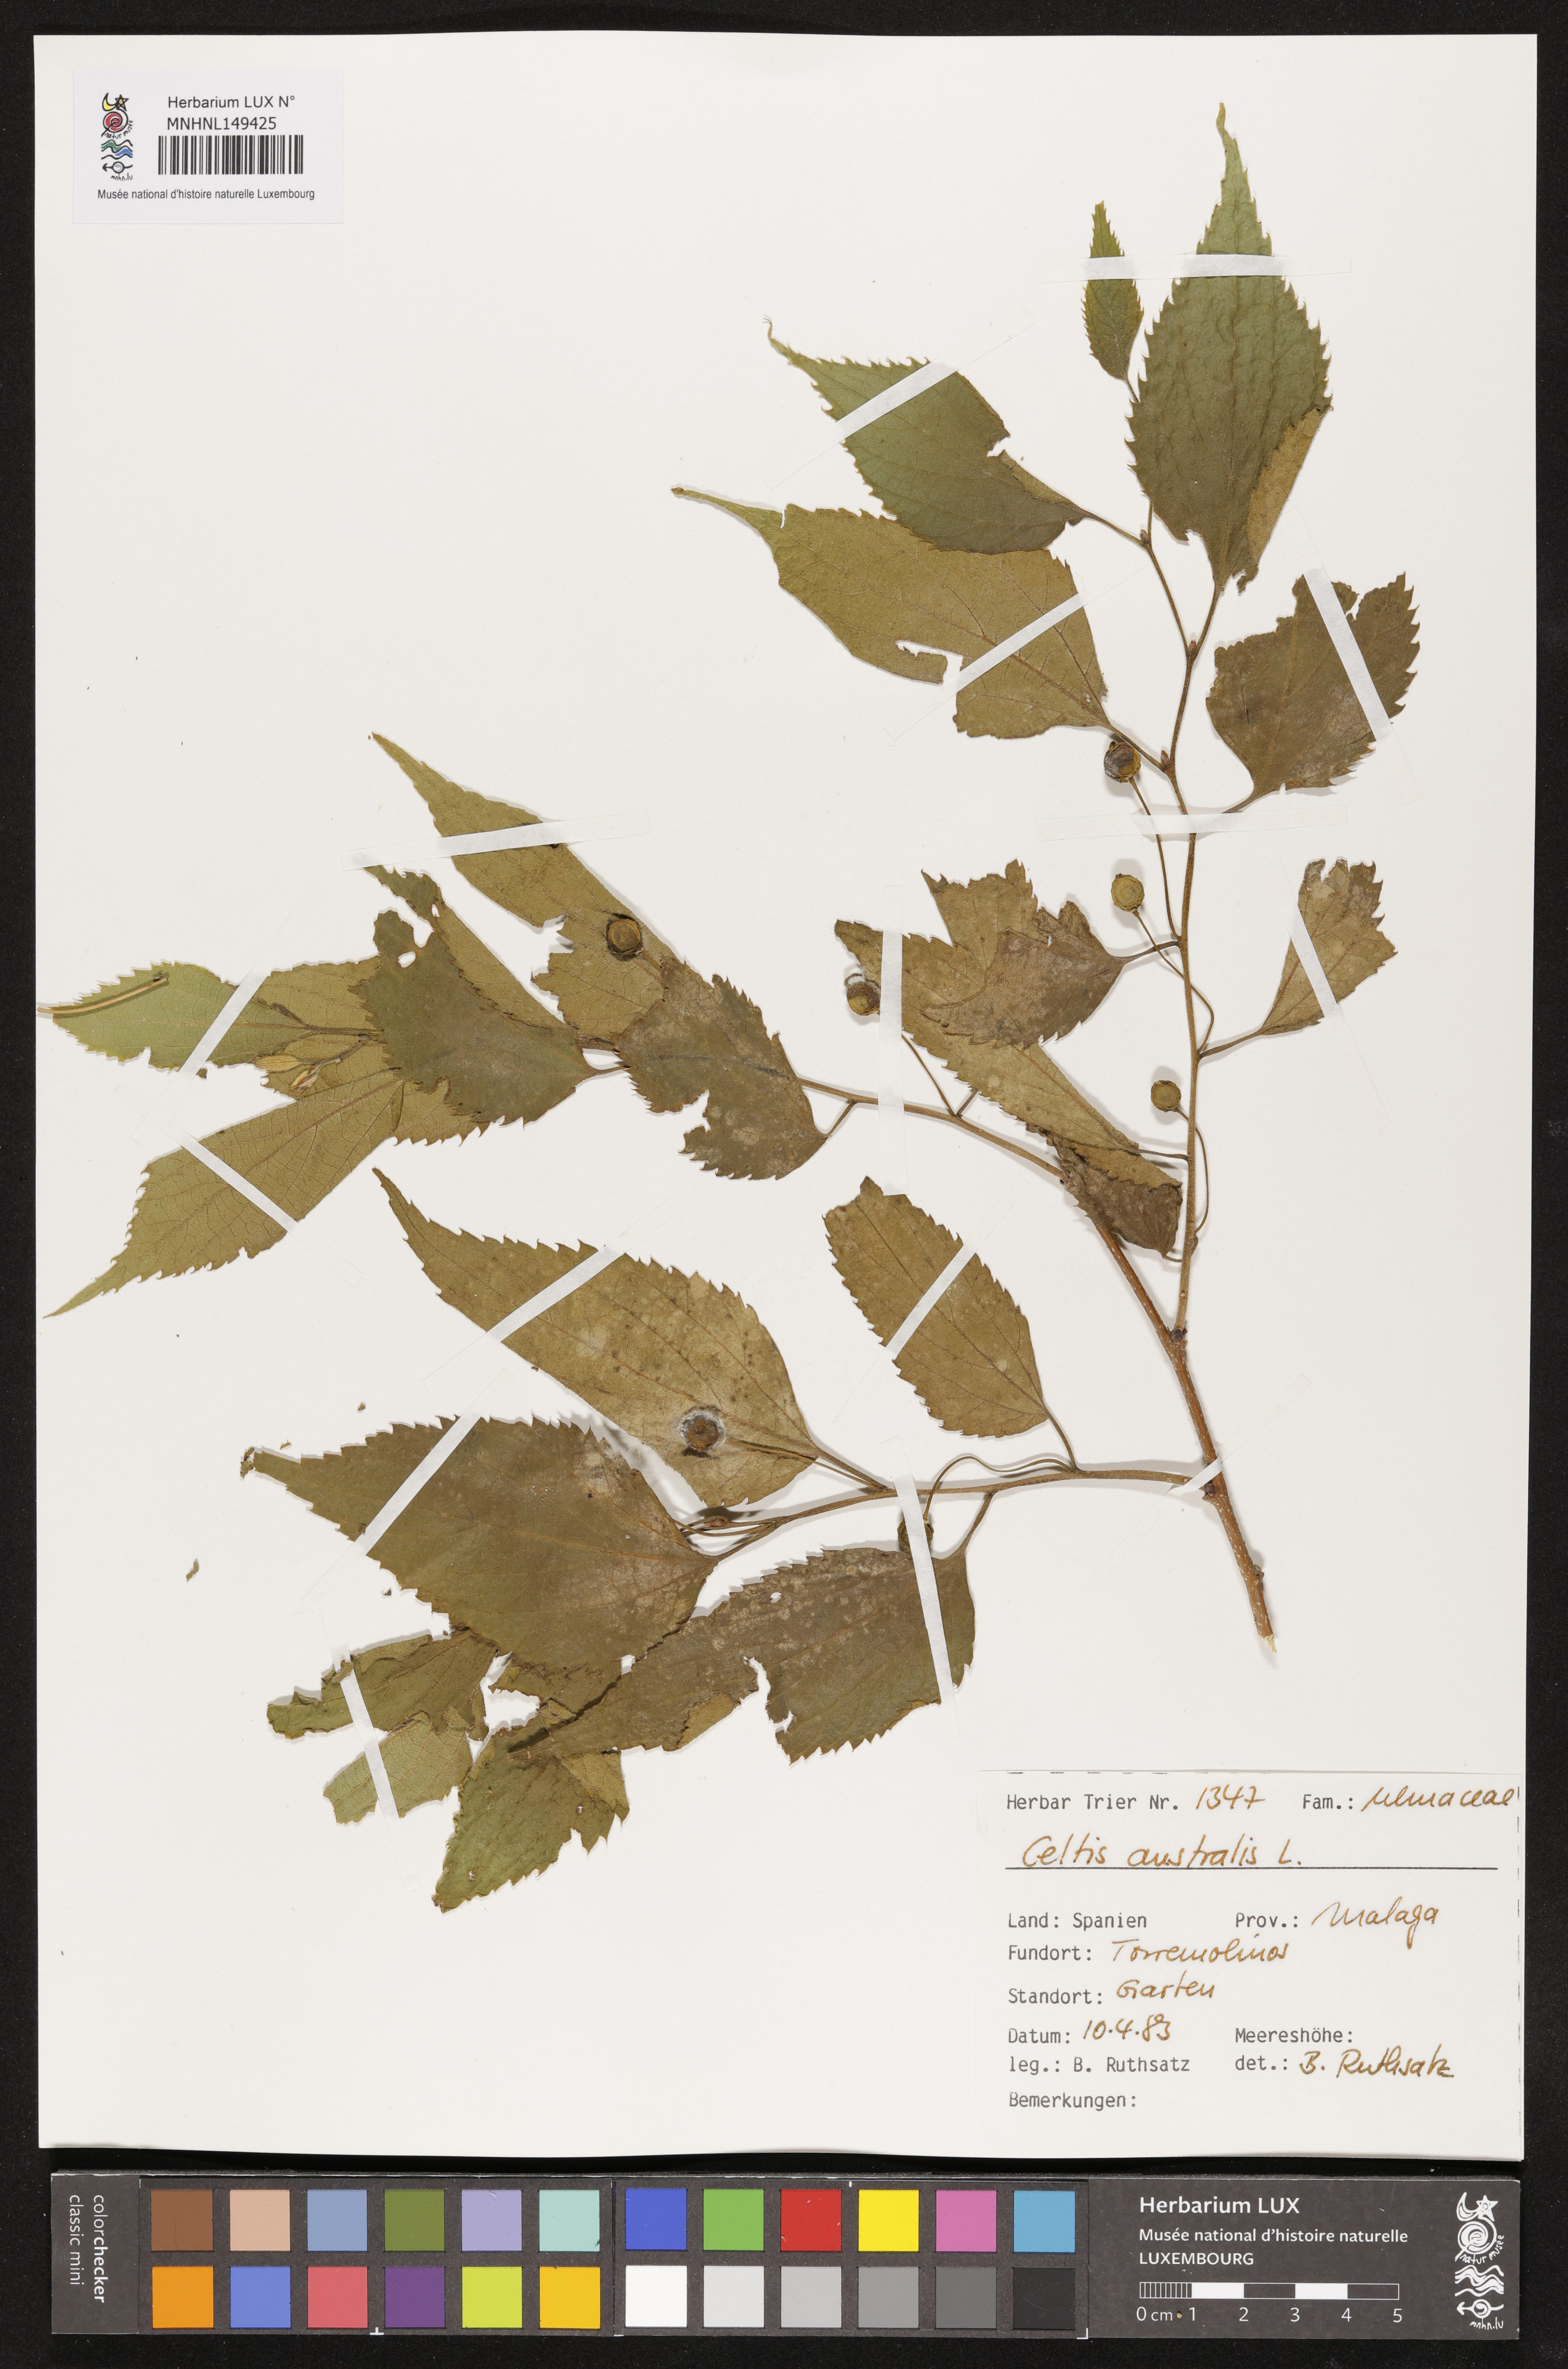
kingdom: Plantae
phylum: Tracheophyta
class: Magnoliopsida
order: Rosales
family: Cannabaceae
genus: Celtis
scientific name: Celtis australis
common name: European hackberry
